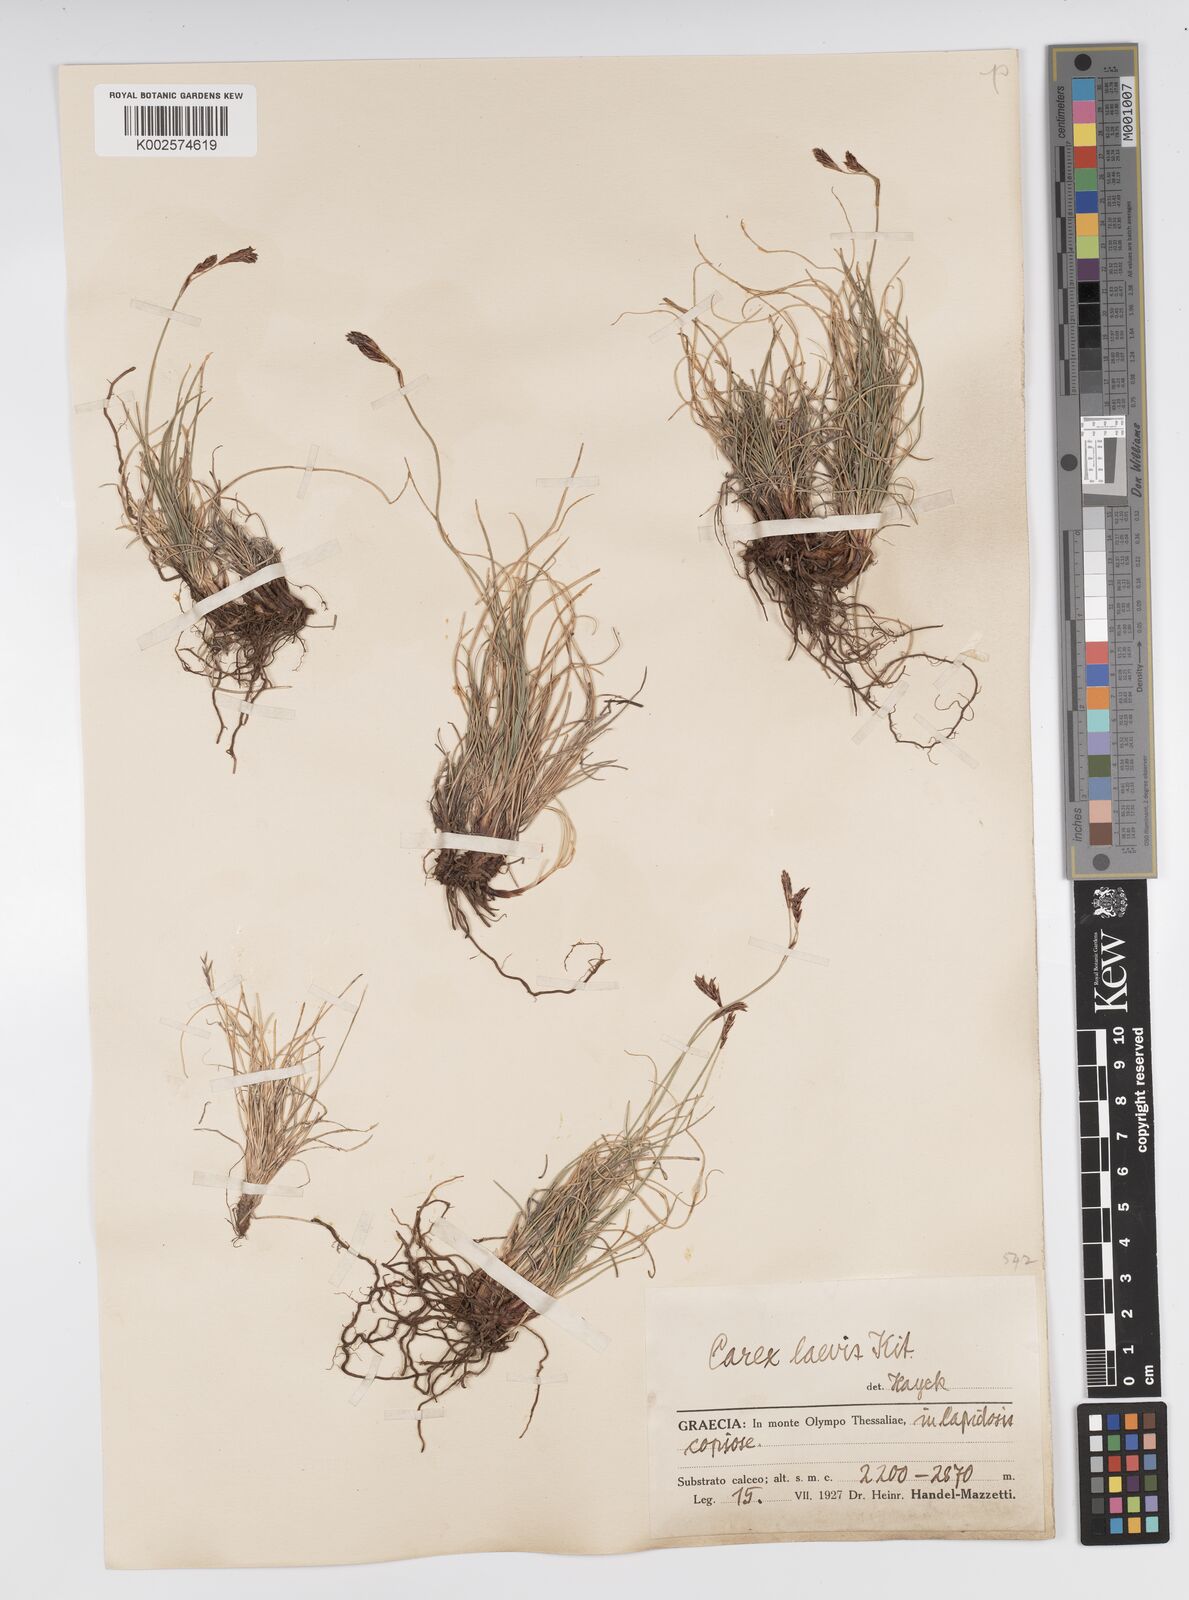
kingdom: Plantae
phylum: Tracheophyta
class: Liliopsida
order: Poales
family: Cyperaceae
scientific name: Cyperaceae
